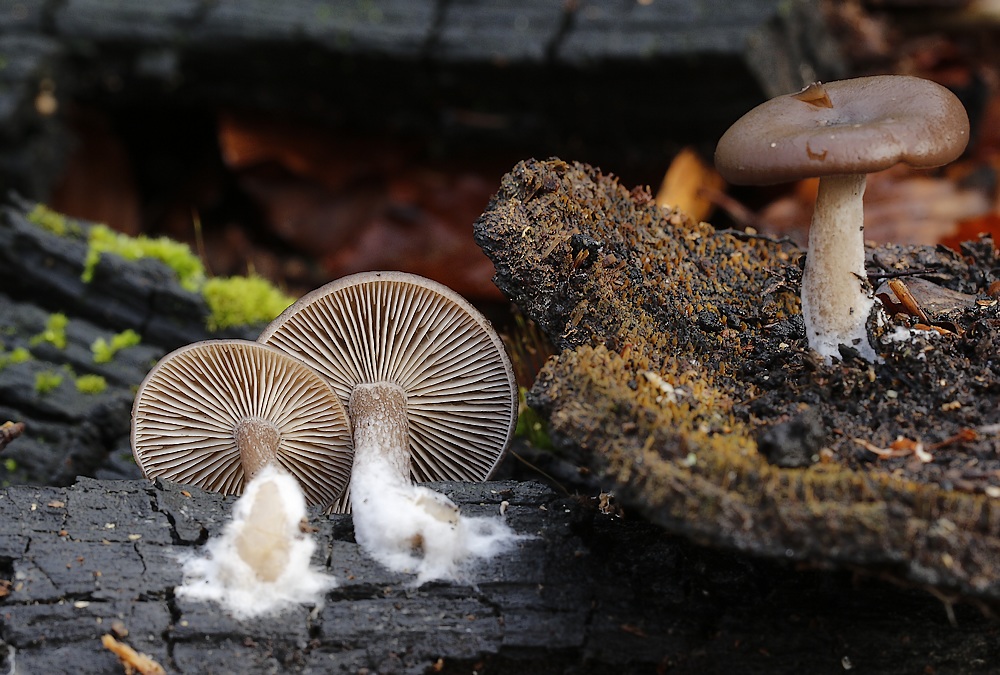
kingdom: Fungi
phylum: Basidiomycota
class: Agaricomycetes
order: Agaricales
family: Pseudoclitocybaceae
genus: Pseudoclitocybe
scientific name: Pseudoclitocybe cyathiformis
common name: almindelig bægertragthat
